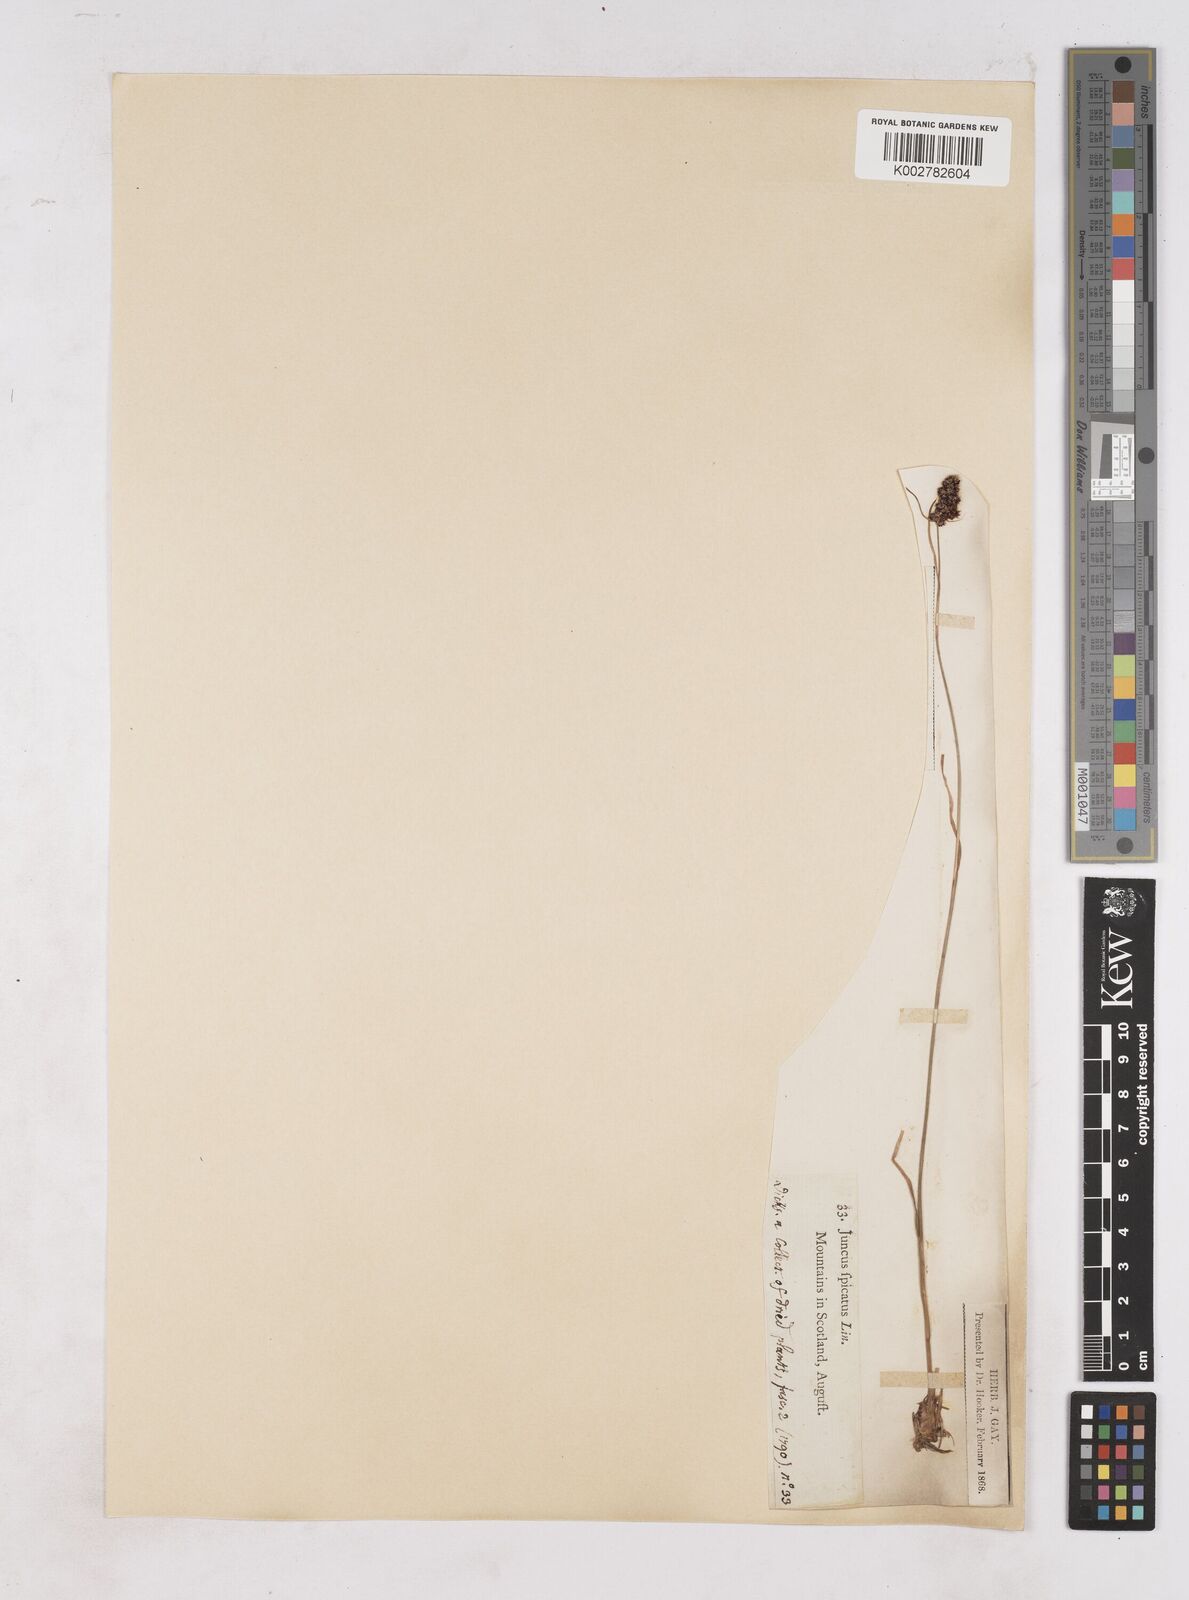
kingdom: Plantae
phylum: Tracheophyta
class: Liliopsida
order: Poales
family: Juncaceae
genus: Luzula
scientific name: Luzula spicata
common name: Spiked wood-rush
